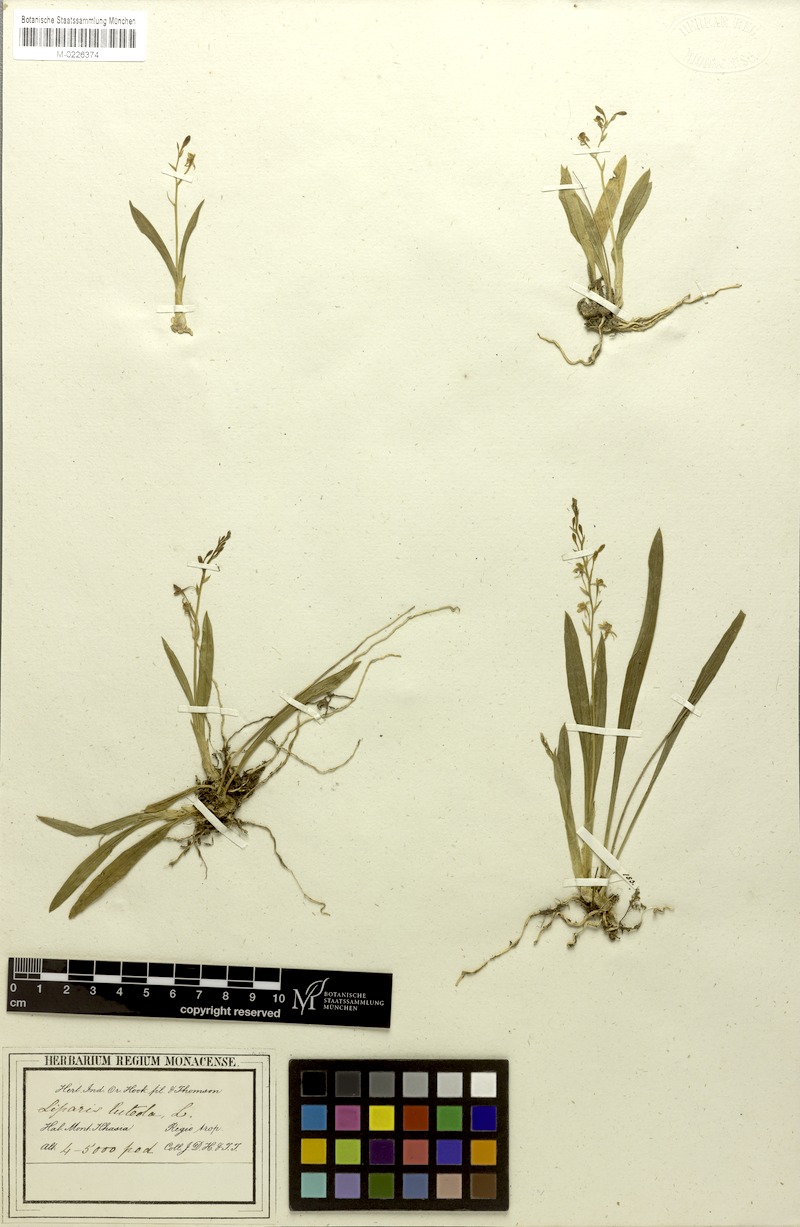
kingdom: Plantae
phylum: Tracheophyta
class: Liliopsida
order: Asparagales
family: Orchidaceae
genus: Liparis
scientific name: Liparis luteola
